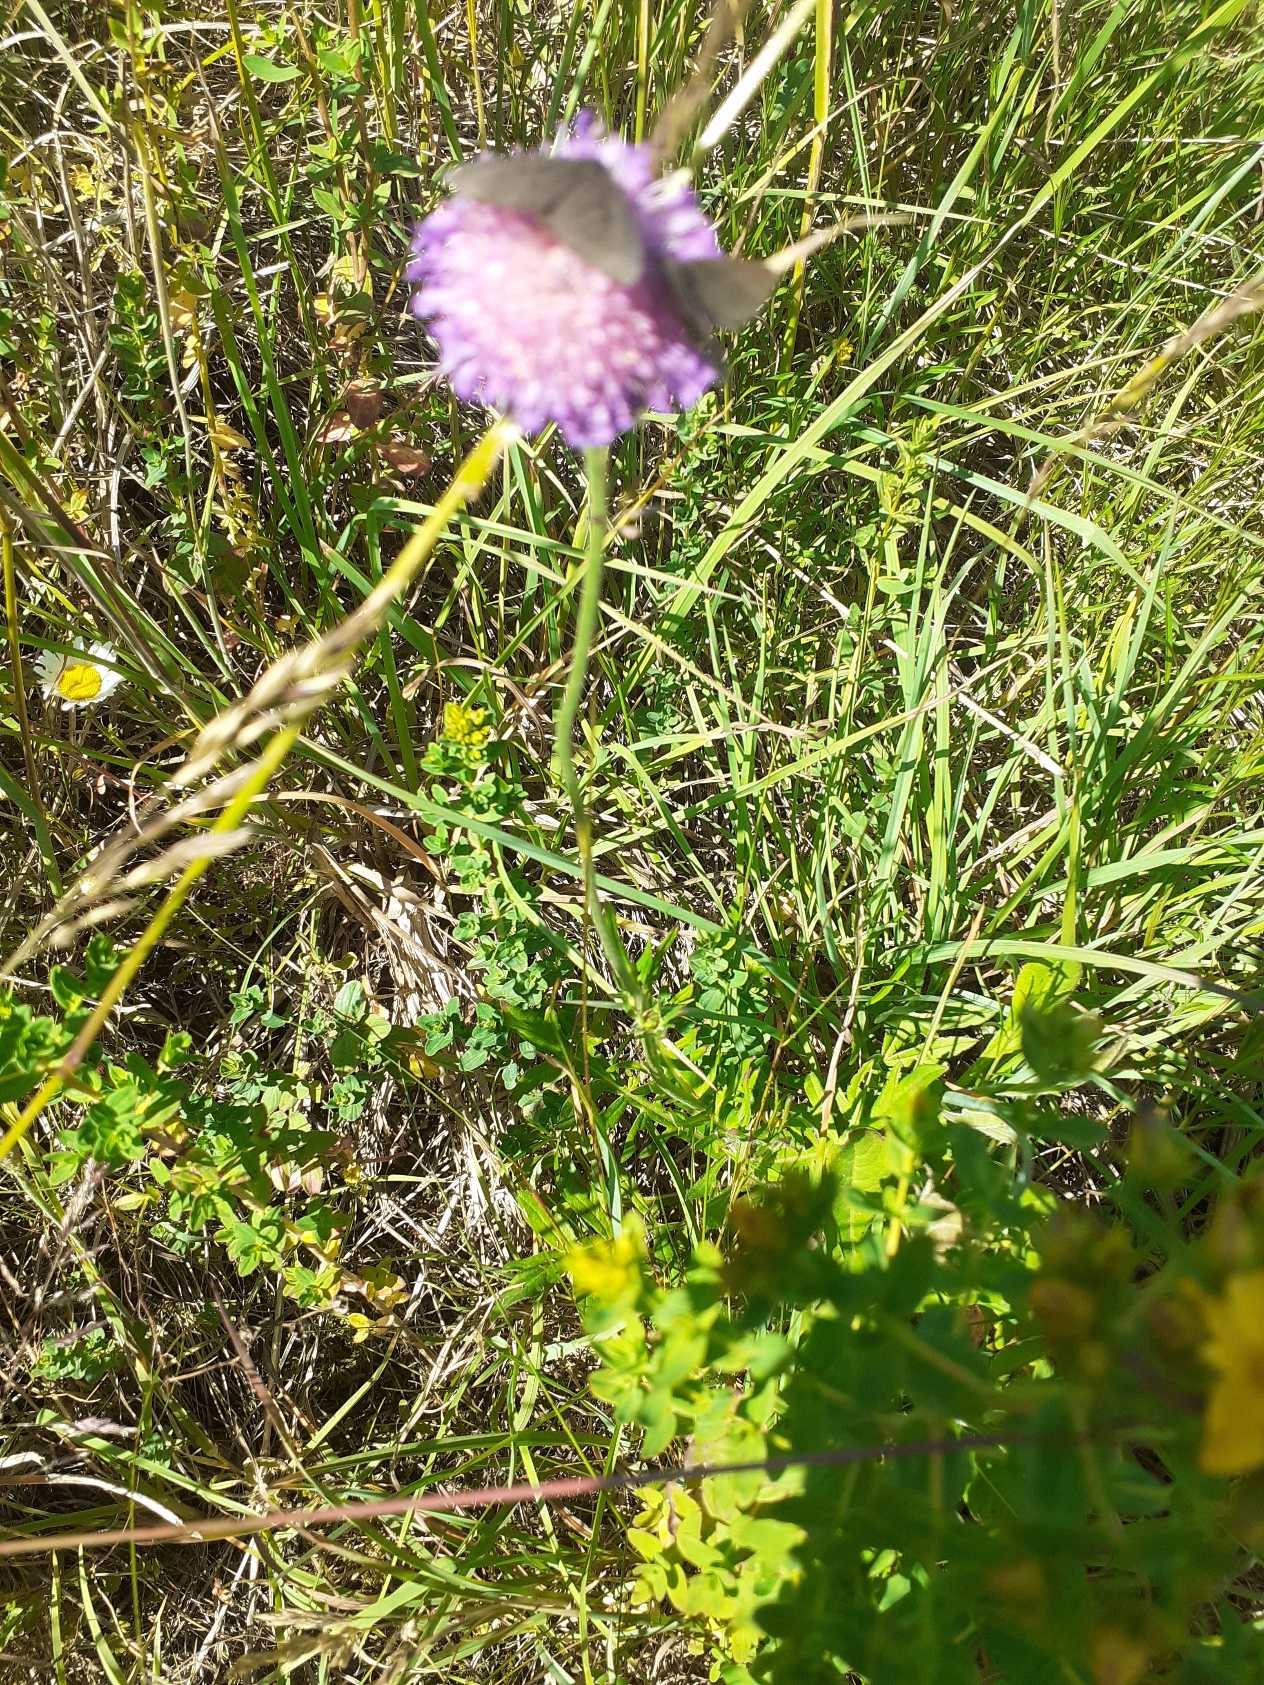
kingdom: Plantae
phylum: Tracheophyta
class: Magnoliopsida
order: Dipsacales
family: Caprifoliaceae
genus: Knautia
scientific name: Knautia arvensis
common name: Blåhat
